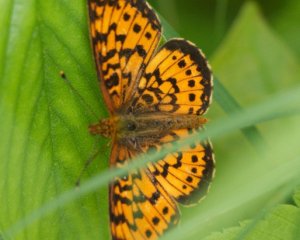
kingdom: Animalia
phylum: Arthropoda
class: Insecta
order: Lepidoptera
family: Nymphalidae
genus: Boloria
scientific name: Boloria selene
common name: Silver-bordered Fritillary
